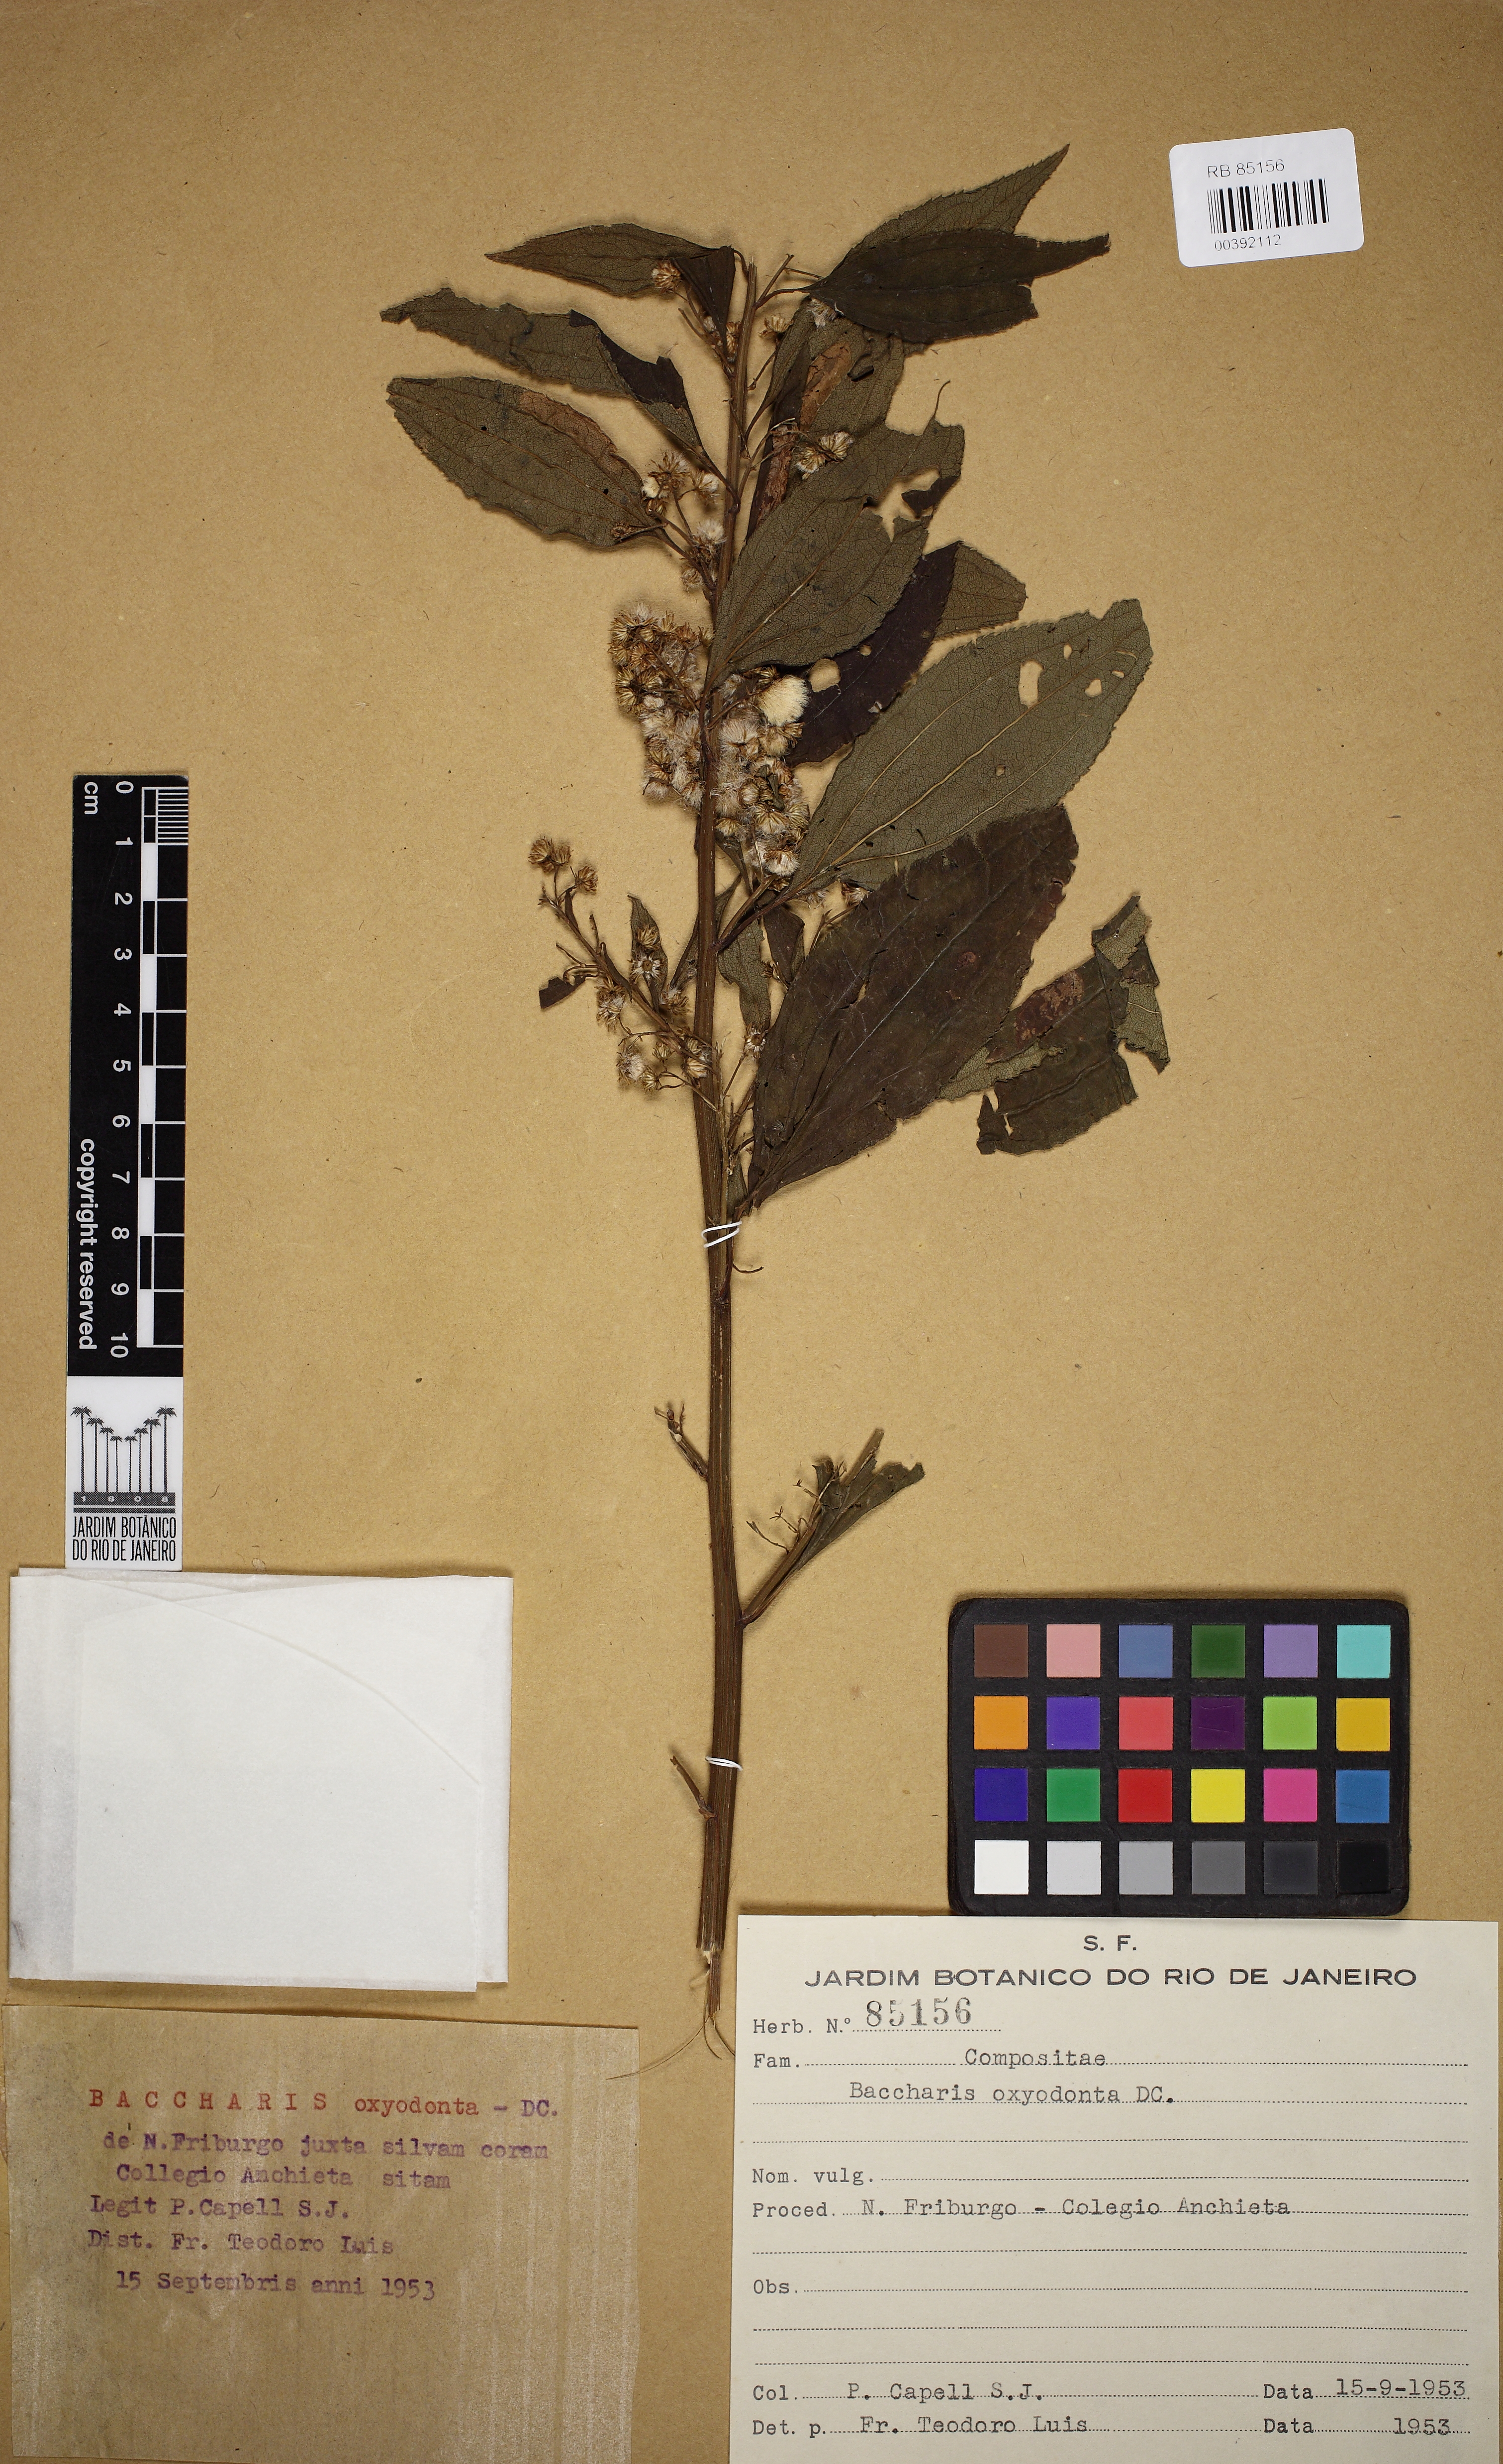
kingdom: Plantae
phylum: Tracheophyta
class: Magnoliopsida
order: Asterales
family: Asteraceae
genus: Baccharis
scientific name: Baccharis oxyodonta
